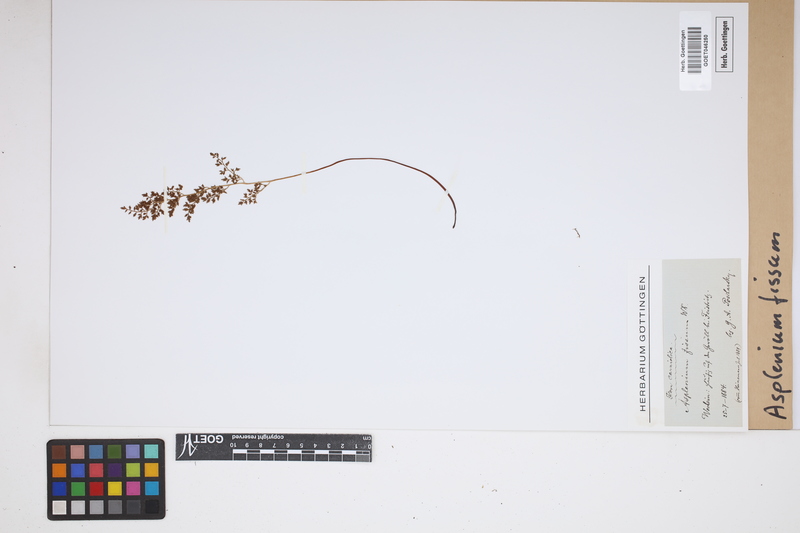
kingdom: Plantae
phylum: Tracheophyta
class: Polypodiopsida
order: Polypodiales
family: Aspleniaceae
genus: Asplenium
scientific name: Asplenium fissum
